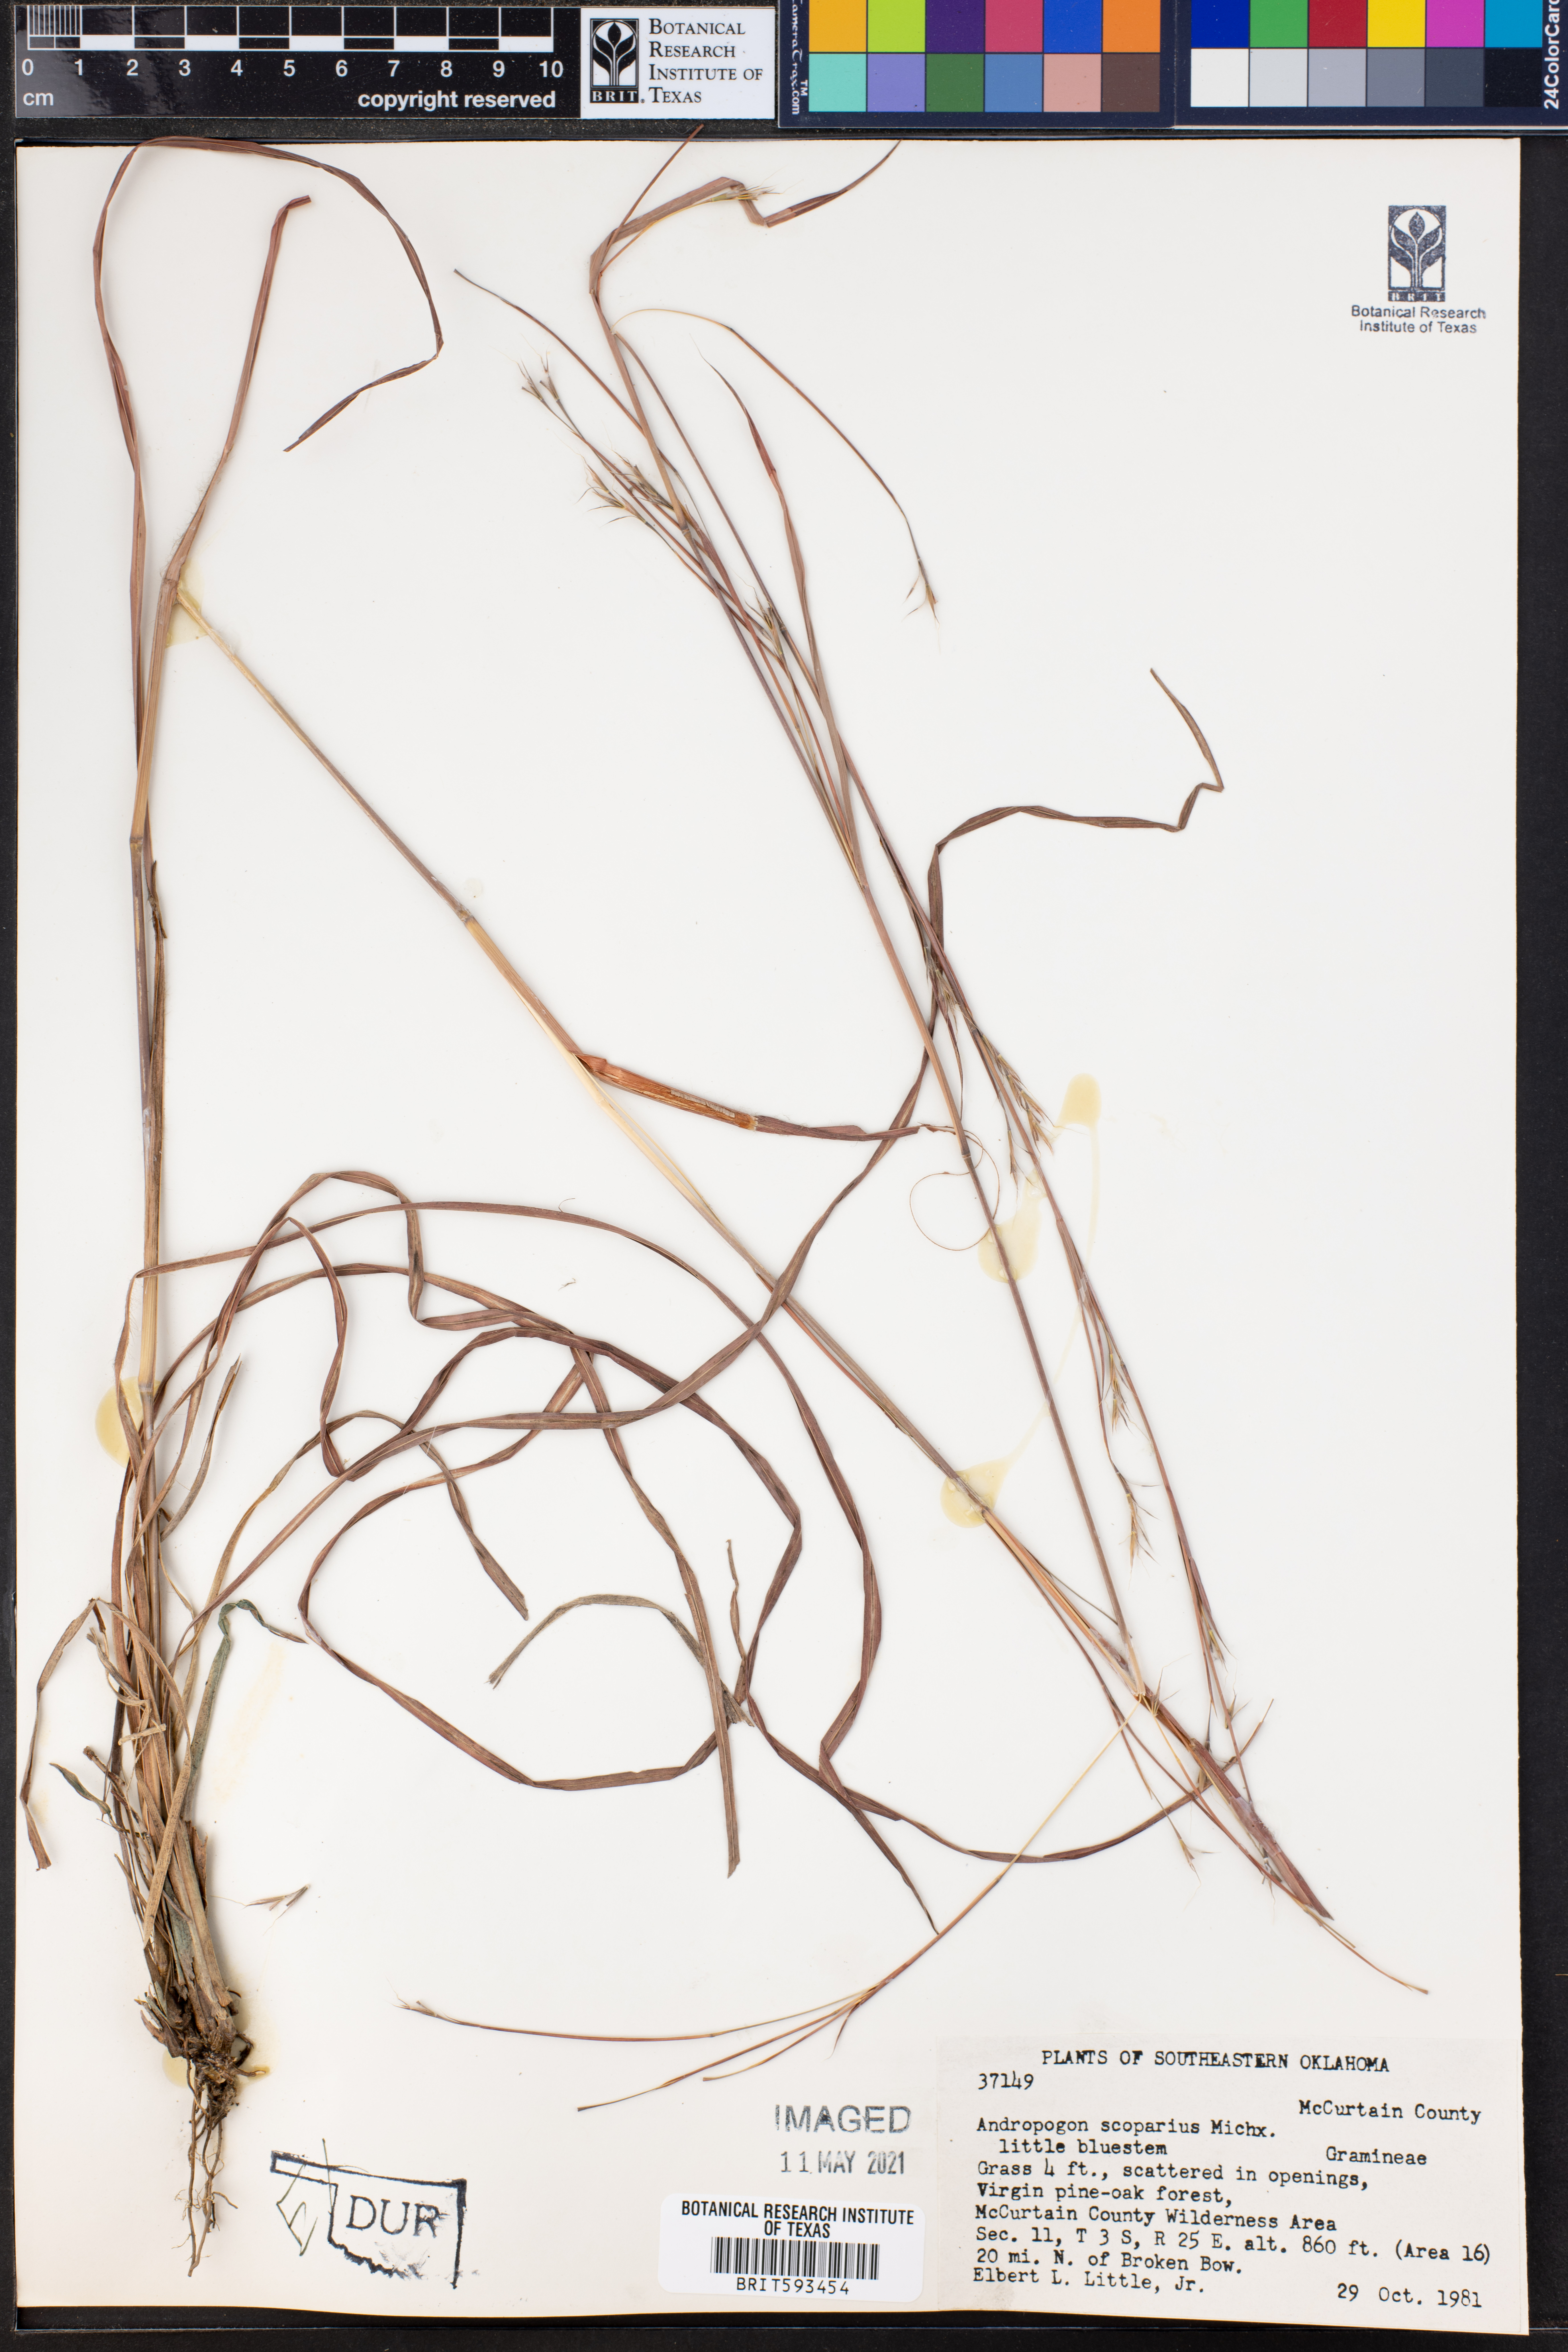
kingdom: Plantae
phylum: Tracheophyta
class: Liliopsida
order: Poales
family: Poaceae
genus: Schizachyrium
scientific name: Schizachyrium scoparium
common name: Little bluestem
